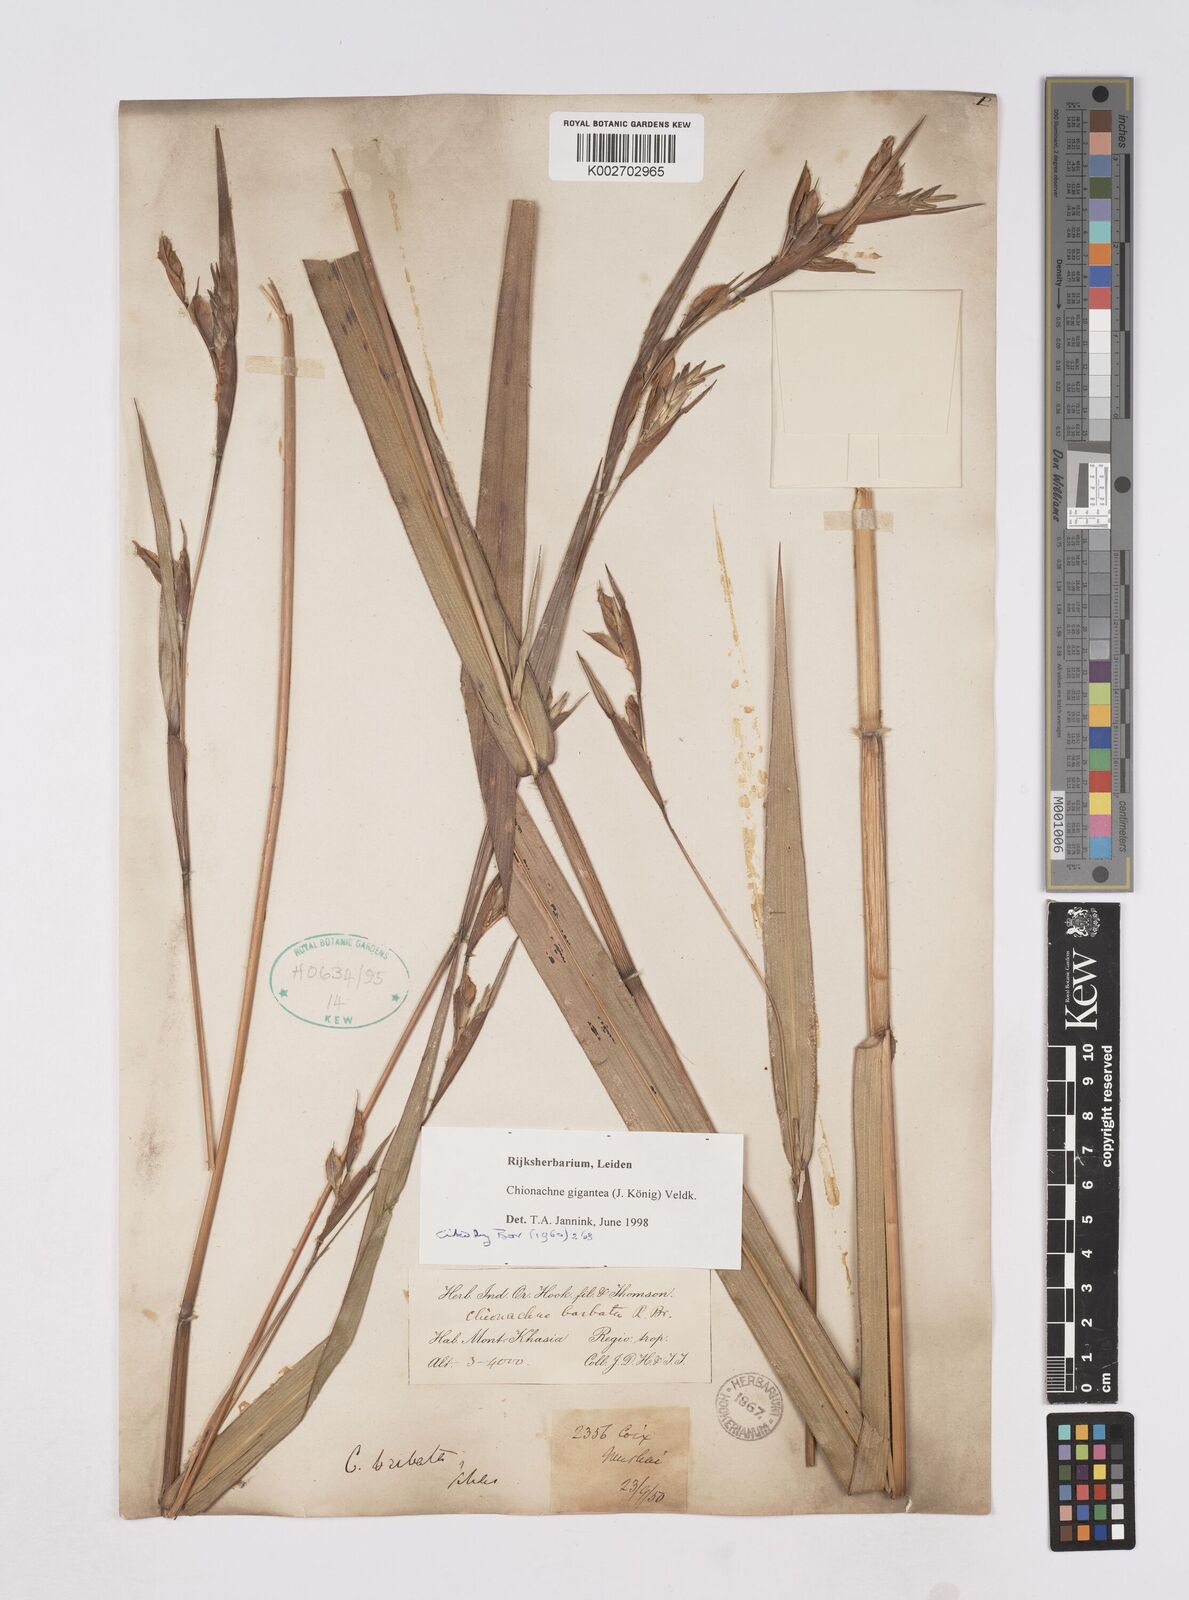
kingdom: Plantae
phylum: Tracheophyta
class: Liliopsida
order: Poales
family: Poaceae
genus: Polytoca
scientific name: Polytoca gigantea
